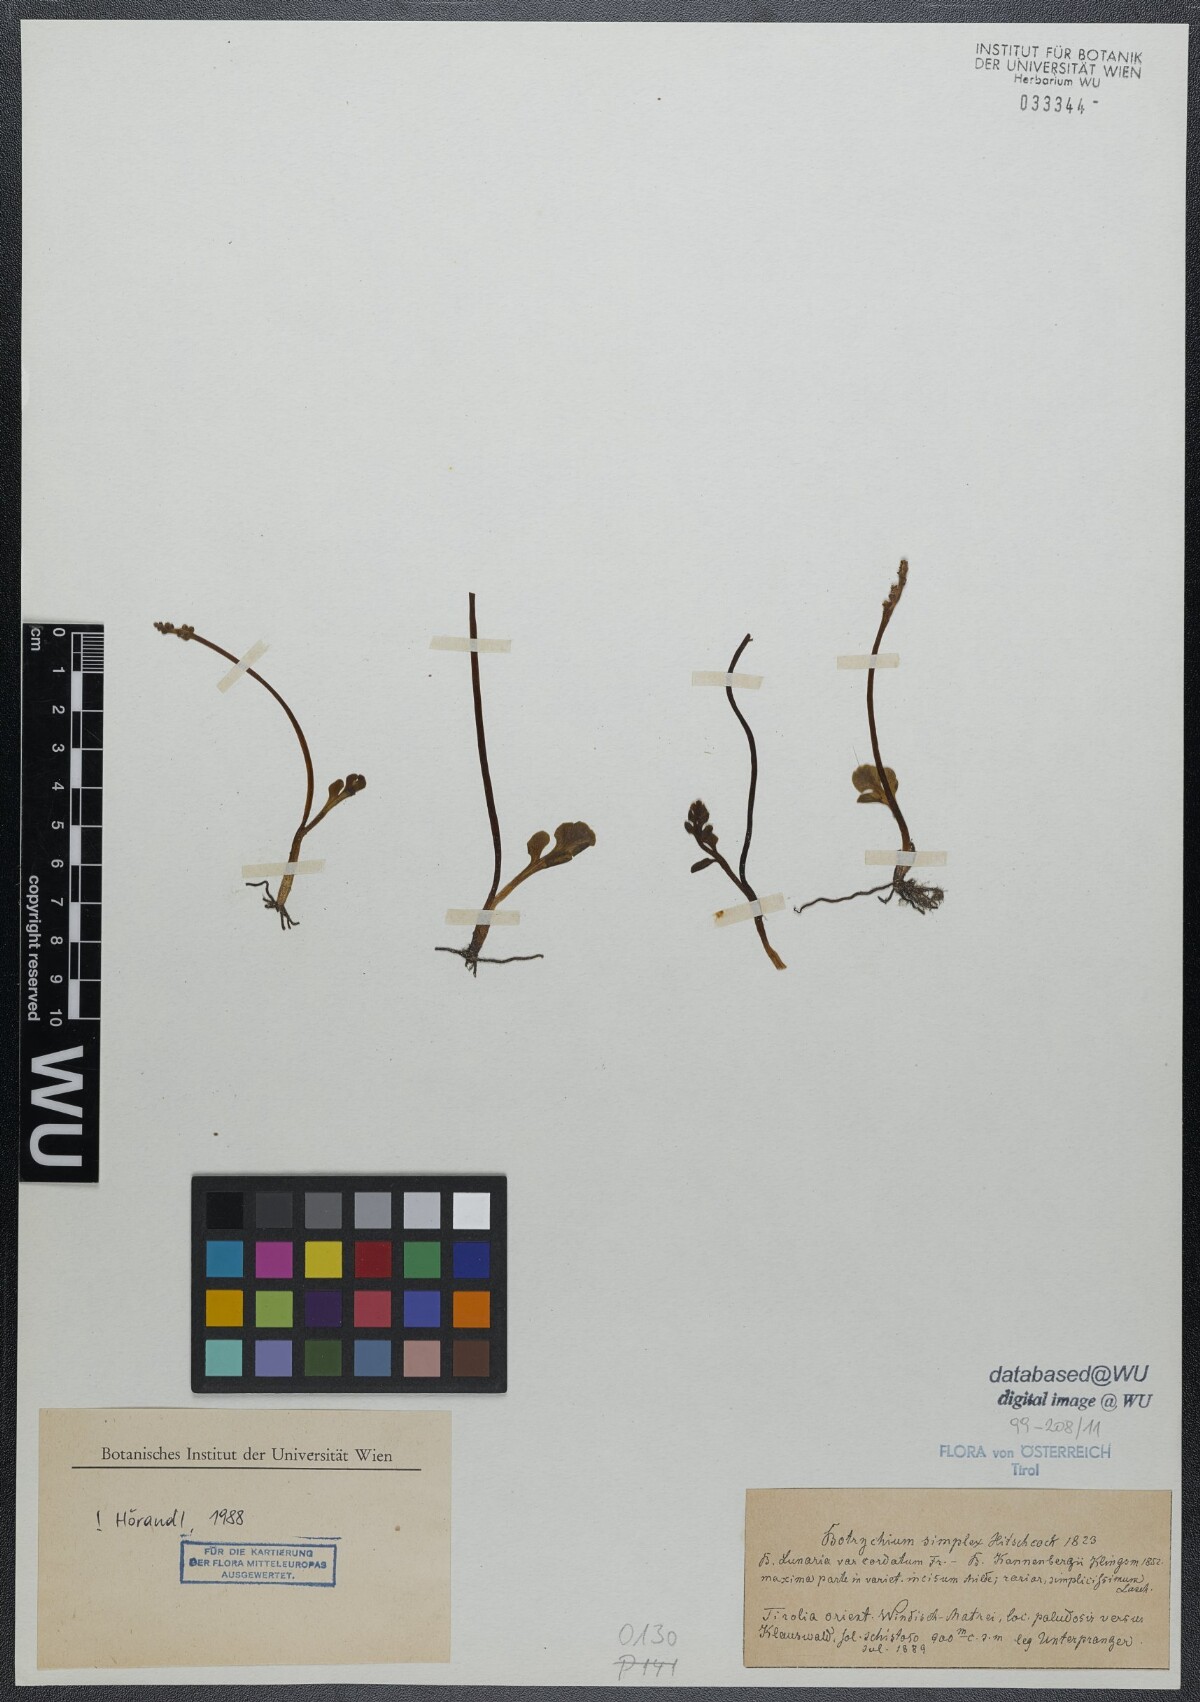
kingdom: Plantae
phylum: Tracheophyta
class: Polypodiopsida
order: Ophioglossales
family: Ophioglossaceae
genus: Botrychium
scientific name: Botrychium simplex
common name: Least moonwort
